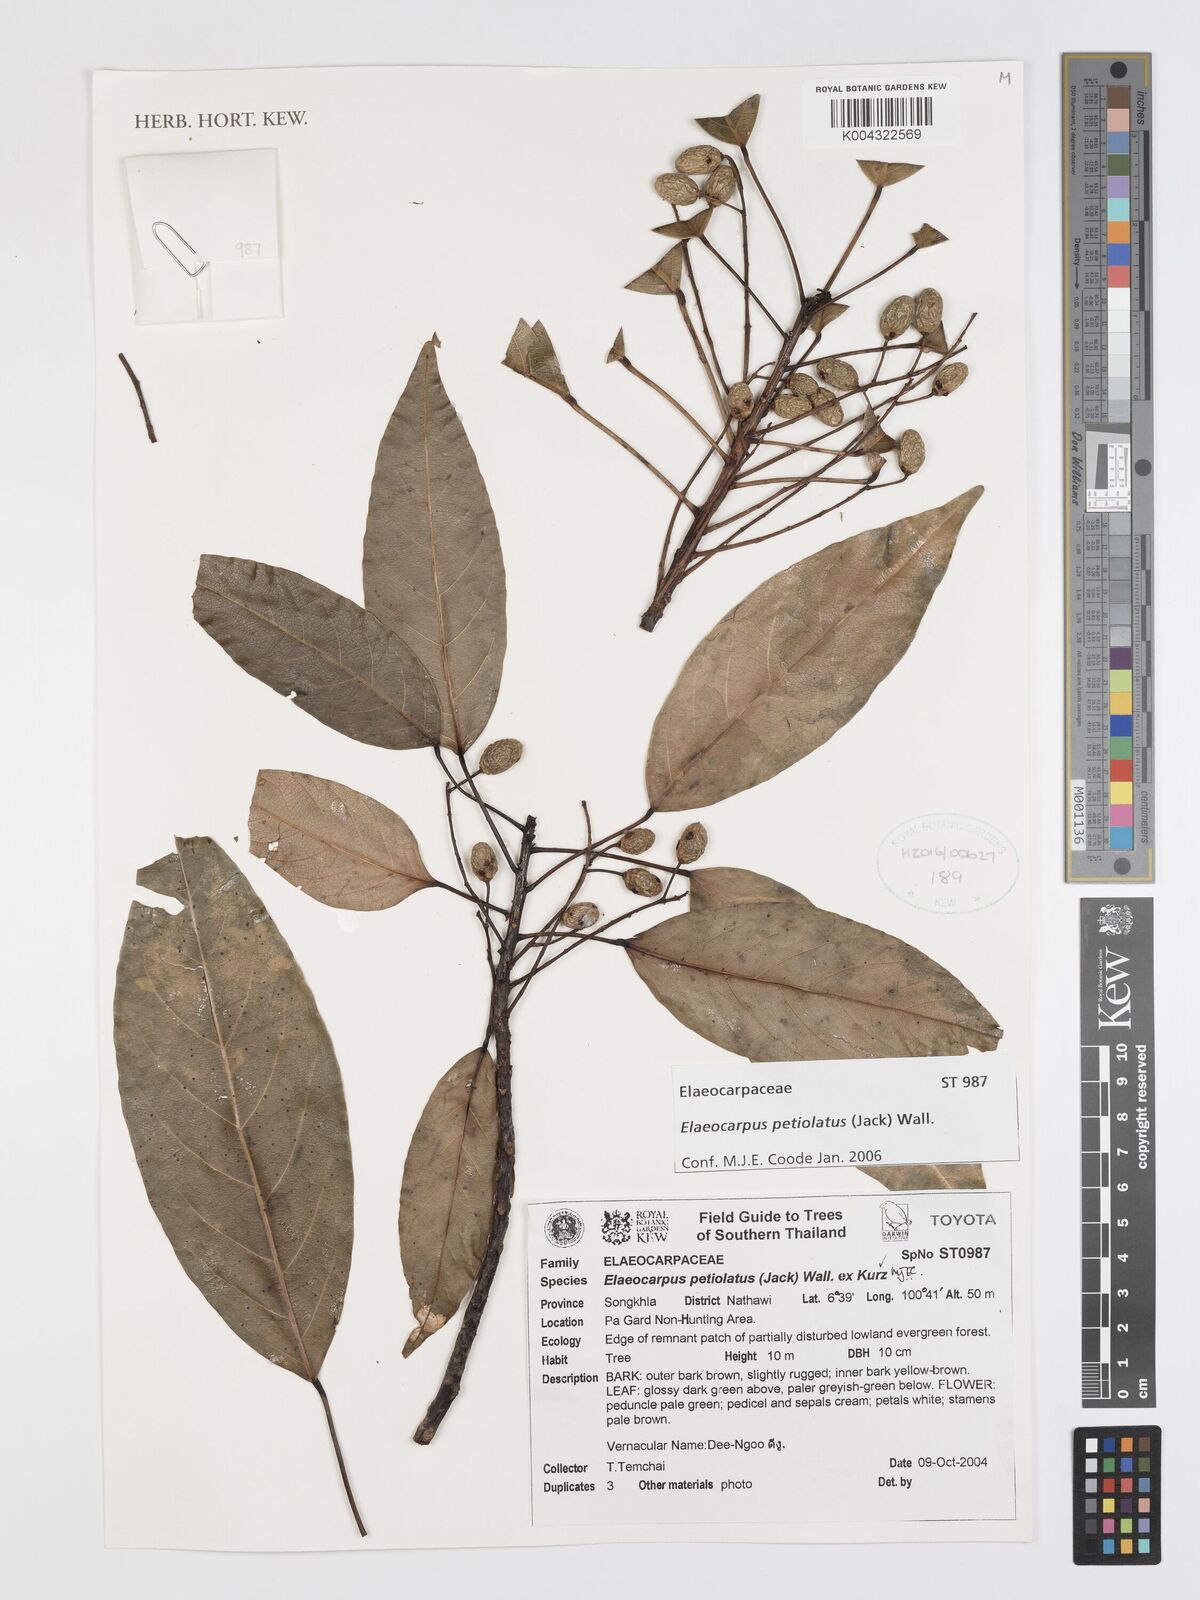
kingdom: Plantae
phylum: Tracheophyta
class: Magnoliopsida
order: Oxalidales
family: Elaeocarpaceae
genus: Elaeocarpus
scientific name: Elaeocarpus petiolatus
